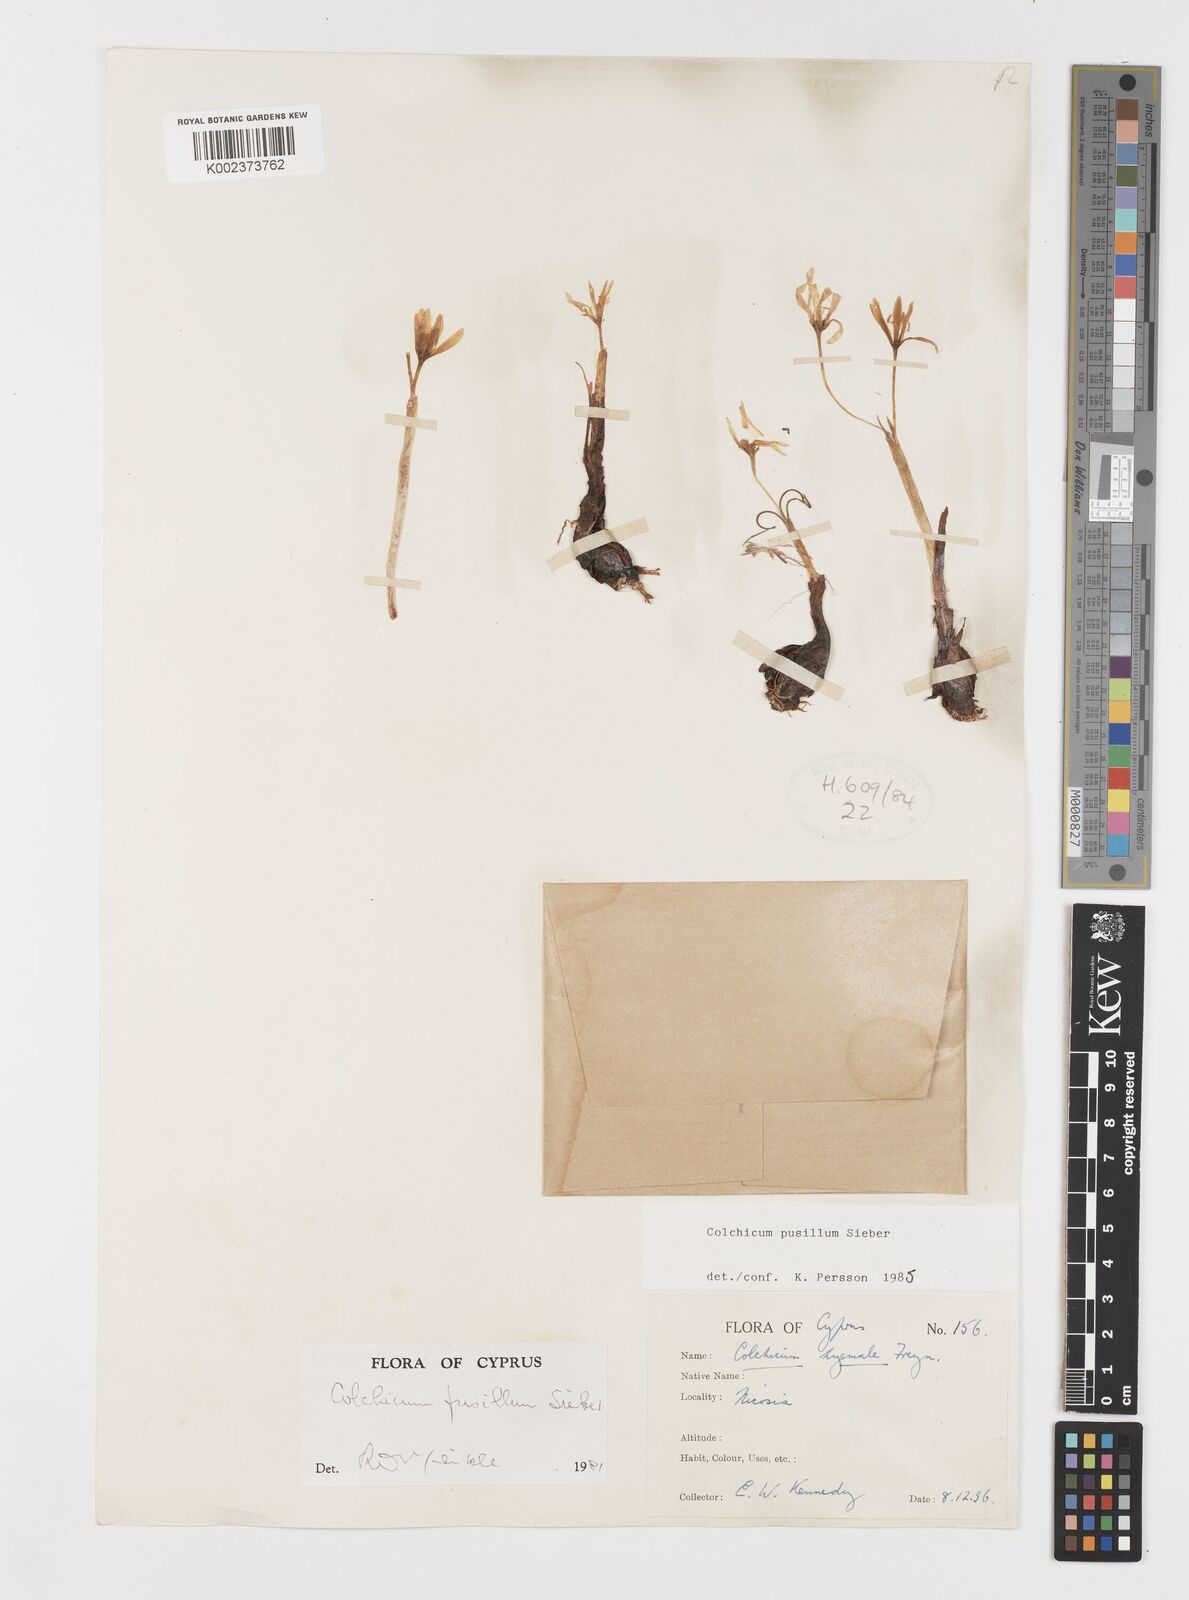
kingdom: Plantae
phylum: Tracheophyta
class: Liliopsida
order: Liliales
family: Colchicaceae
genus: Colchicum
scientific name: Colchicum pusillum
